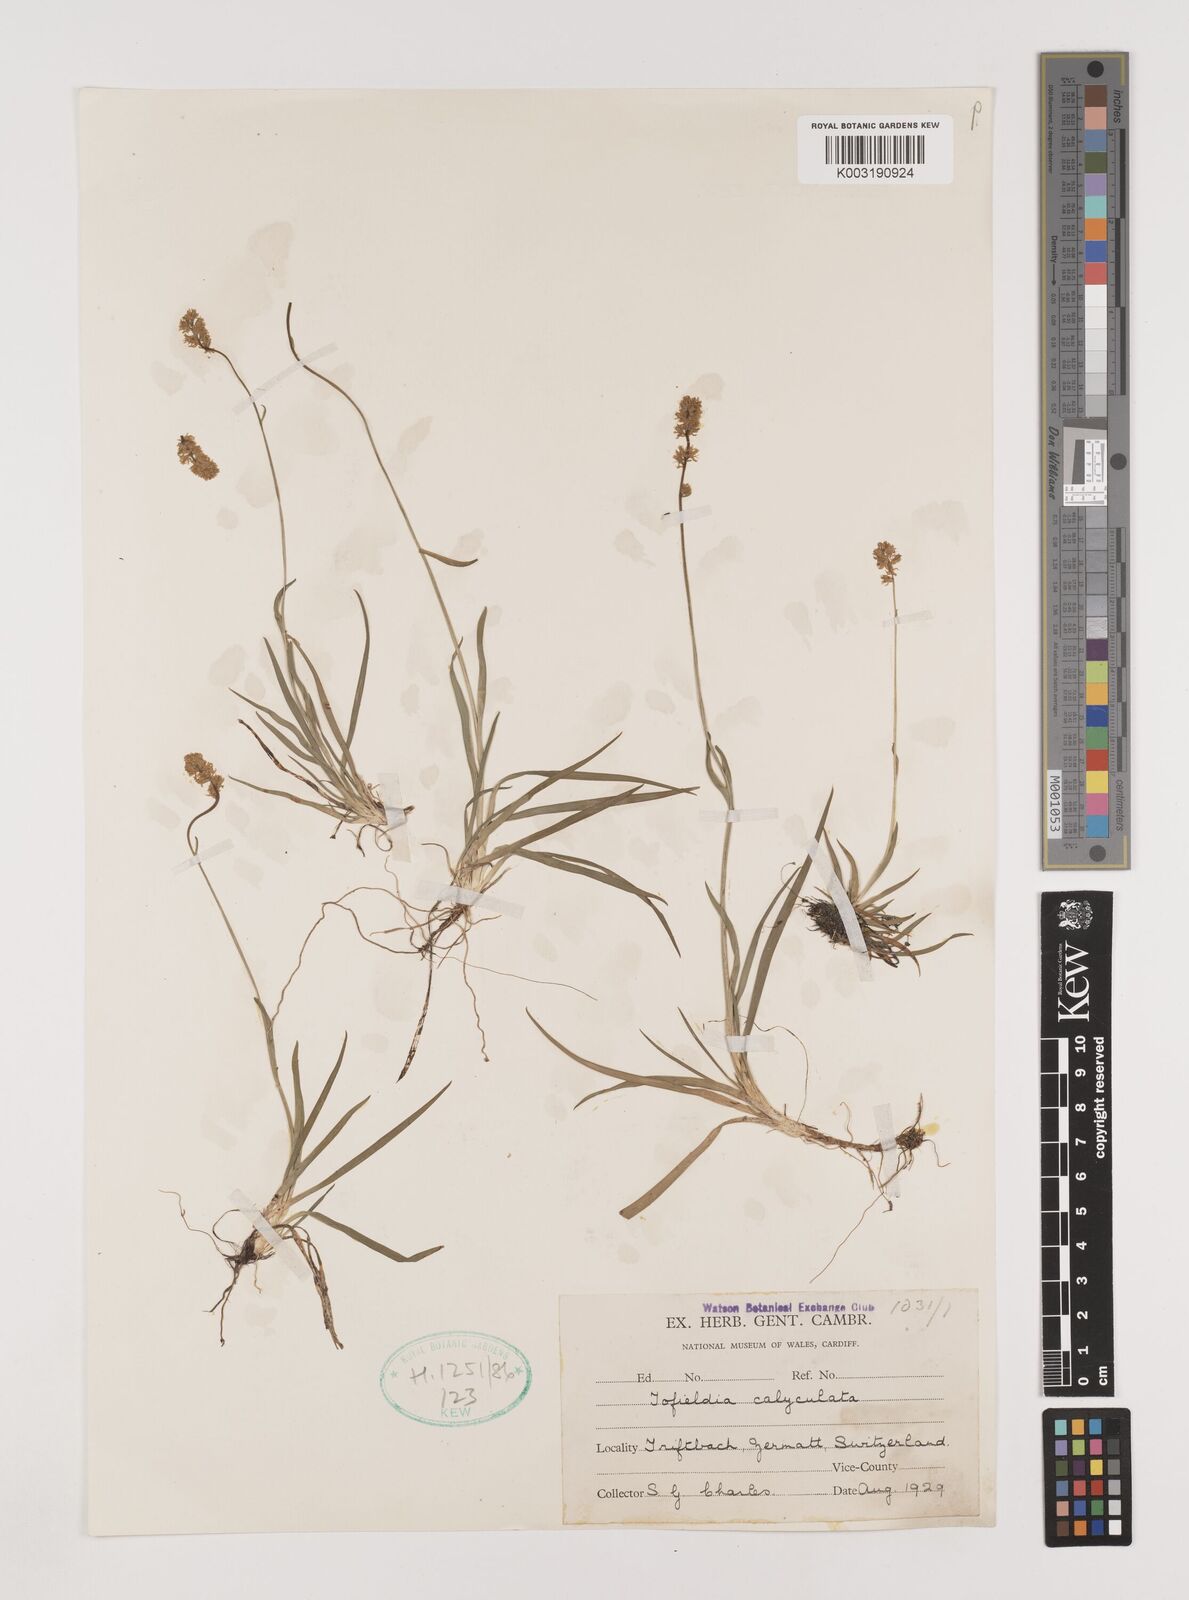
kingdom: Plantae
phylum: Tracheophyta
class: Liliopsida
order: Alismatales
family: Tofieldiaceae
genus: Tofieldia
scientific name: Tofieldia calyculata
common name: German-asphodel
